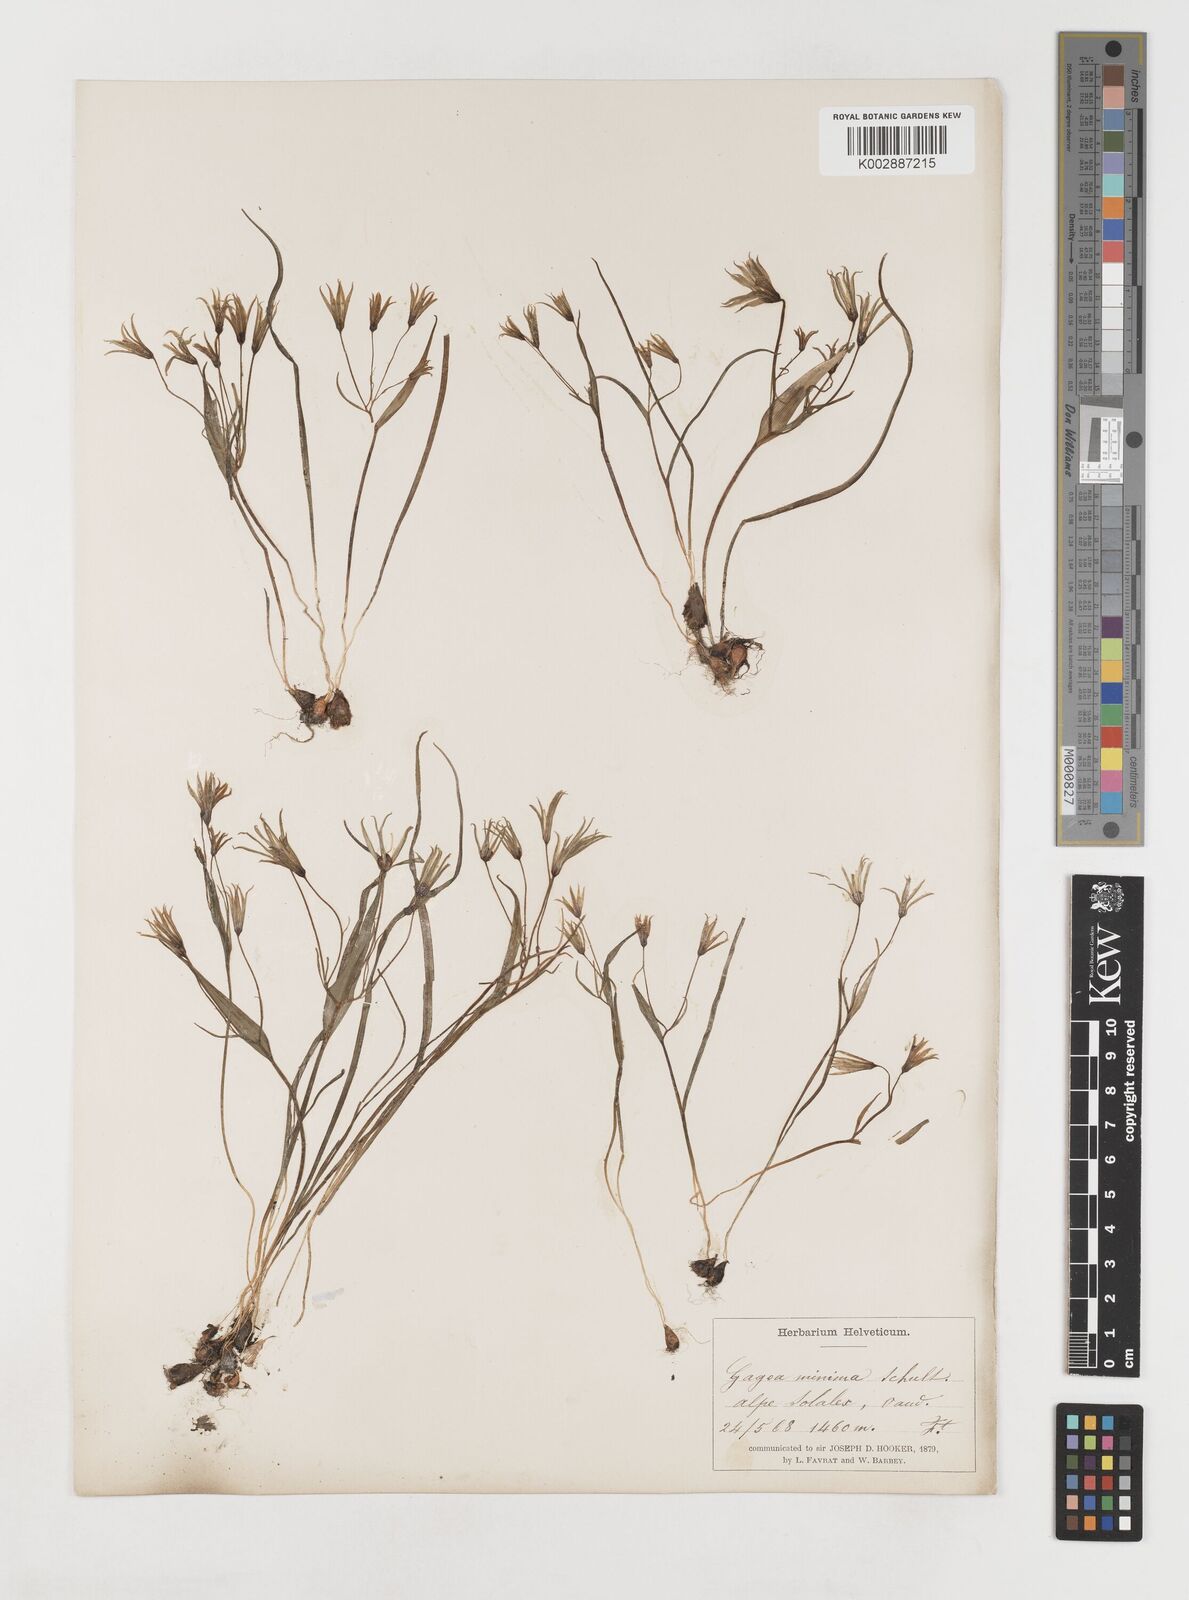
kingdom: Plantae
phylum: Tracheophyta
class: Liliopsida
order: Liliales
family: Liliaceae
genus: Gagea
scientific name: Gagea minima
